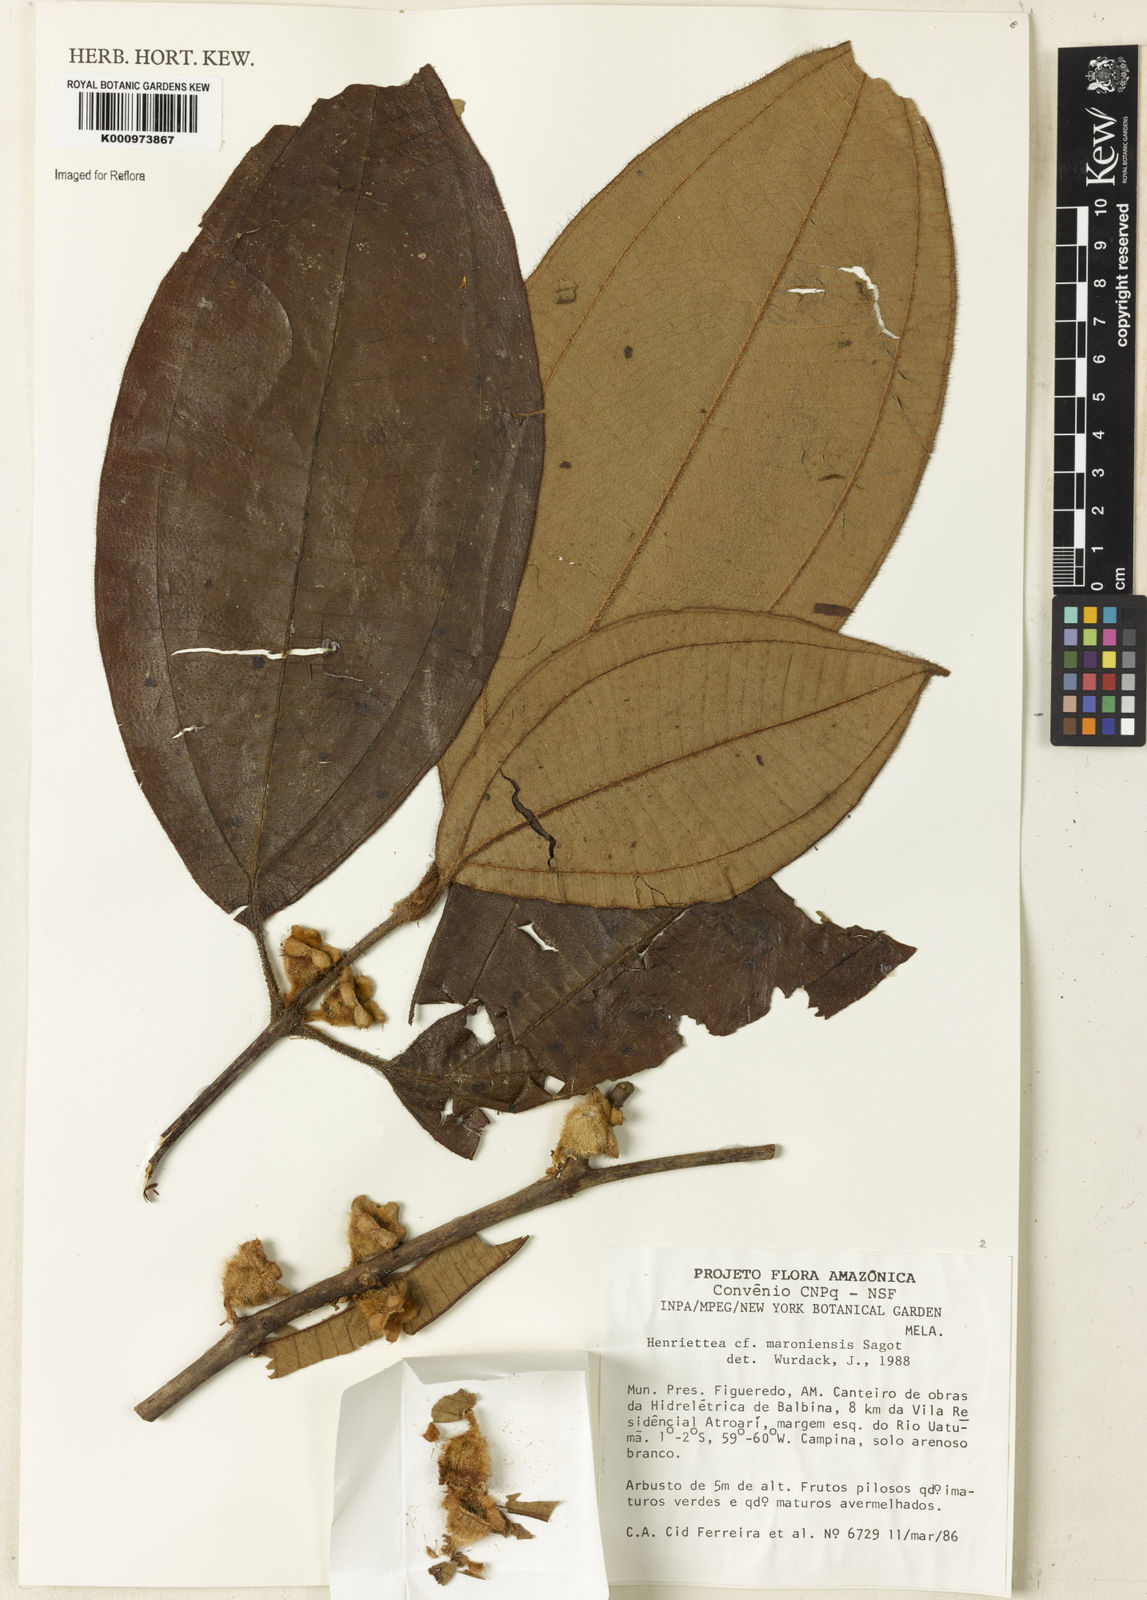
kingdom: Plantae
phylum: Tracheophyta
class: Magnoliopsida
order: Myrtales
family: Melastomataceae
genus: Henriettea
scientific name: Henriettea maroniensis
